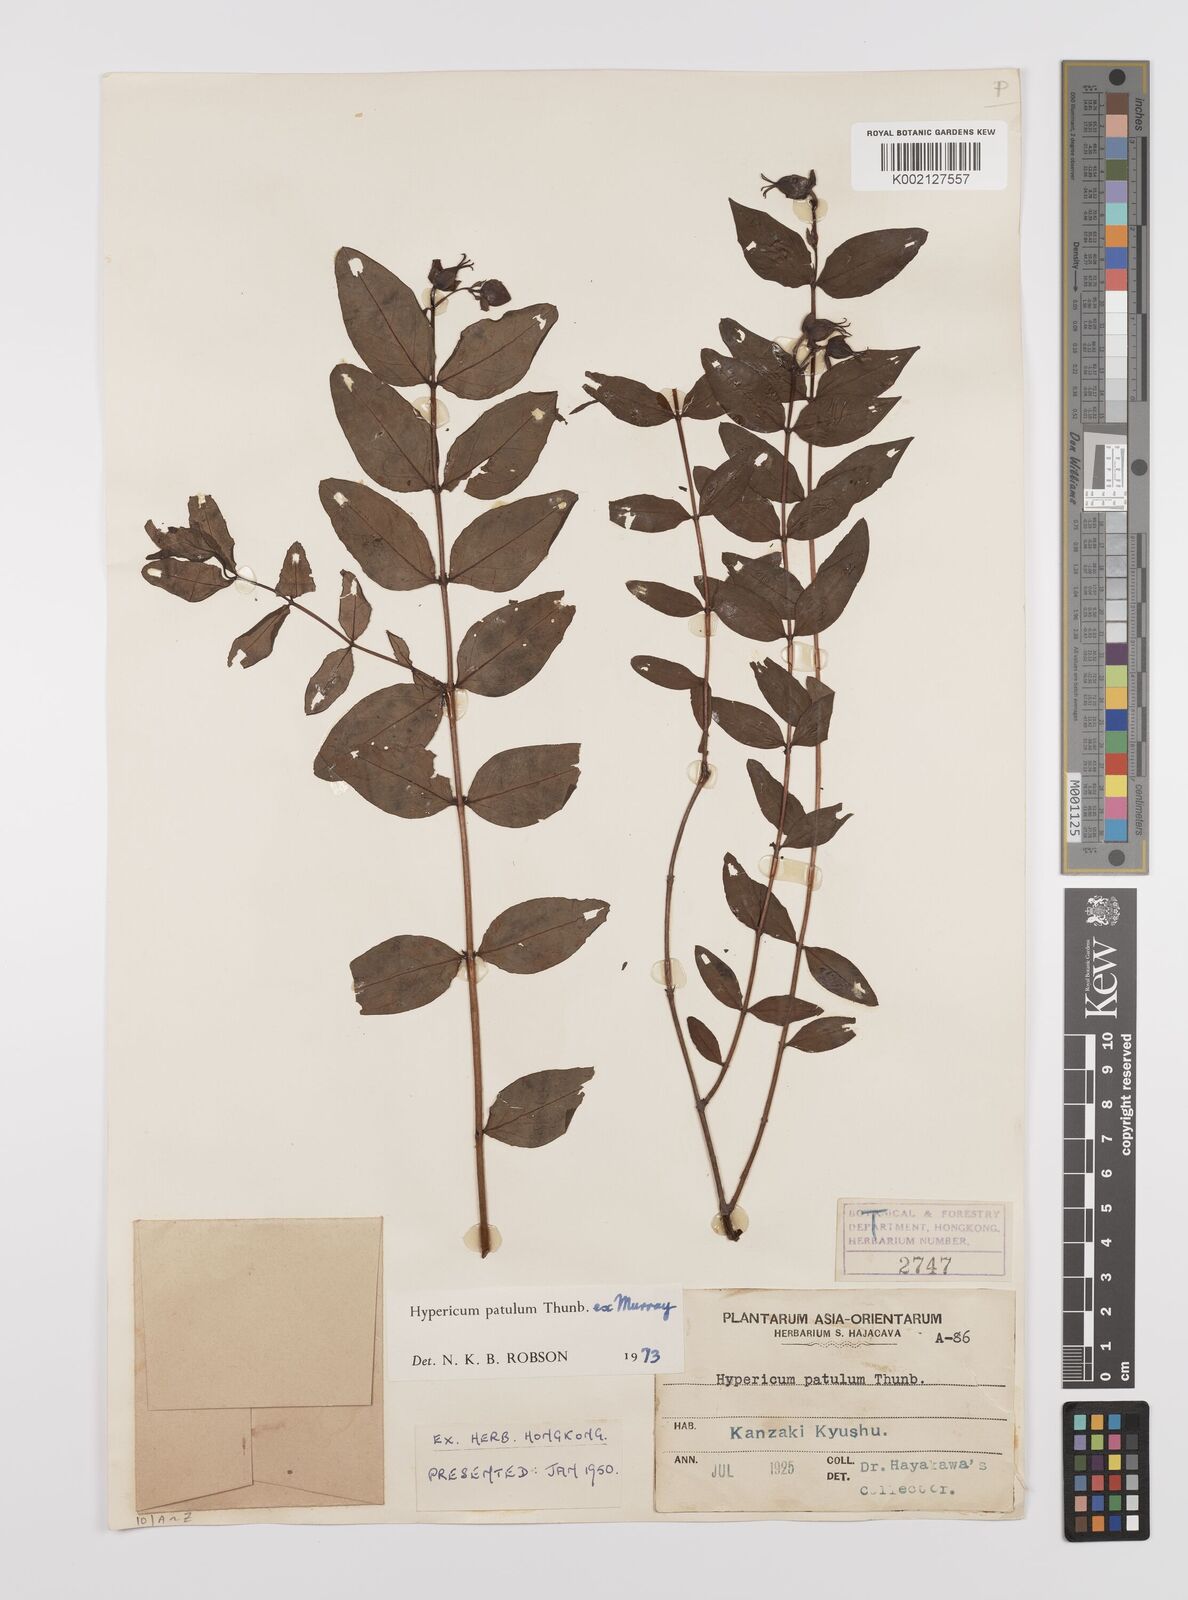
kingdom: Plantae
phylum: Tracheophyta
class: Magnoliopsida
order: Malpighiales
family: Hypericaceae
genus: Hypericum
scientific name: Hypericum patulum
